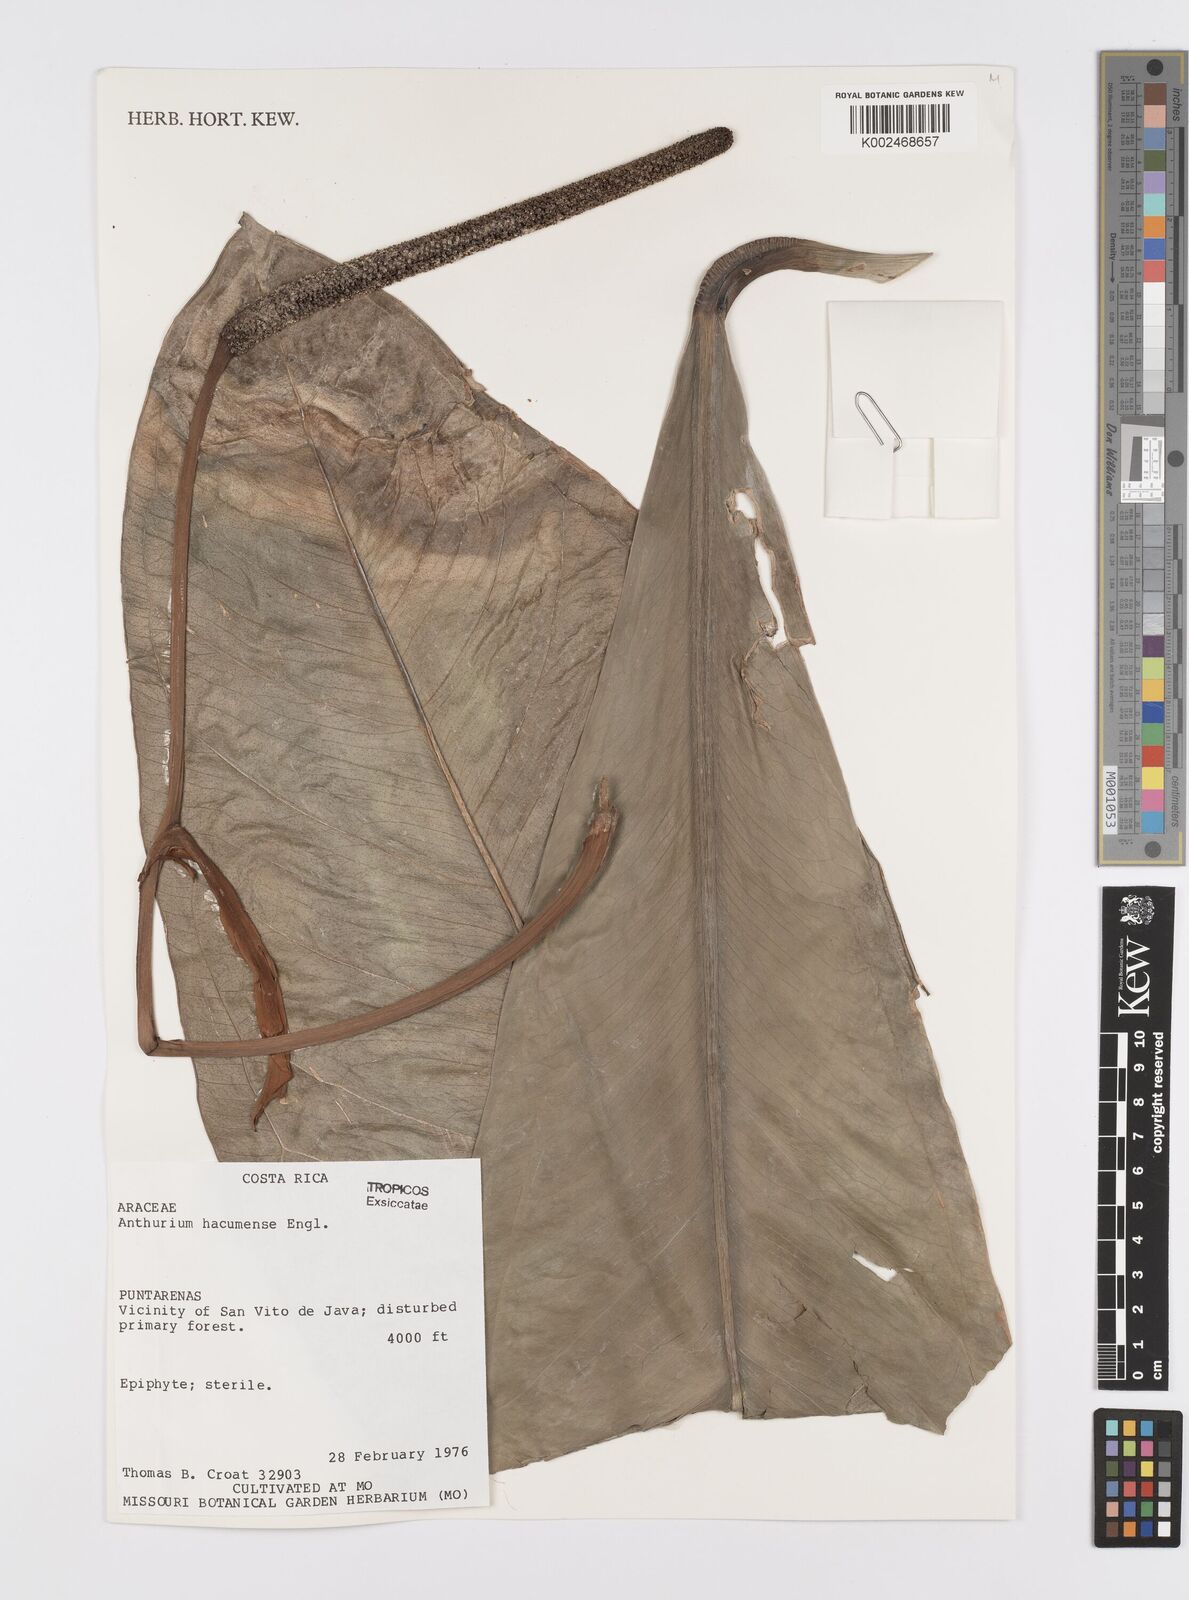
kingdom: Plantae
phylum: Tracheophyta
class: Liliopsida
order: Alismatales
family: Araceae
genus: Anthurium
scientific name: Anthurium hacumense
